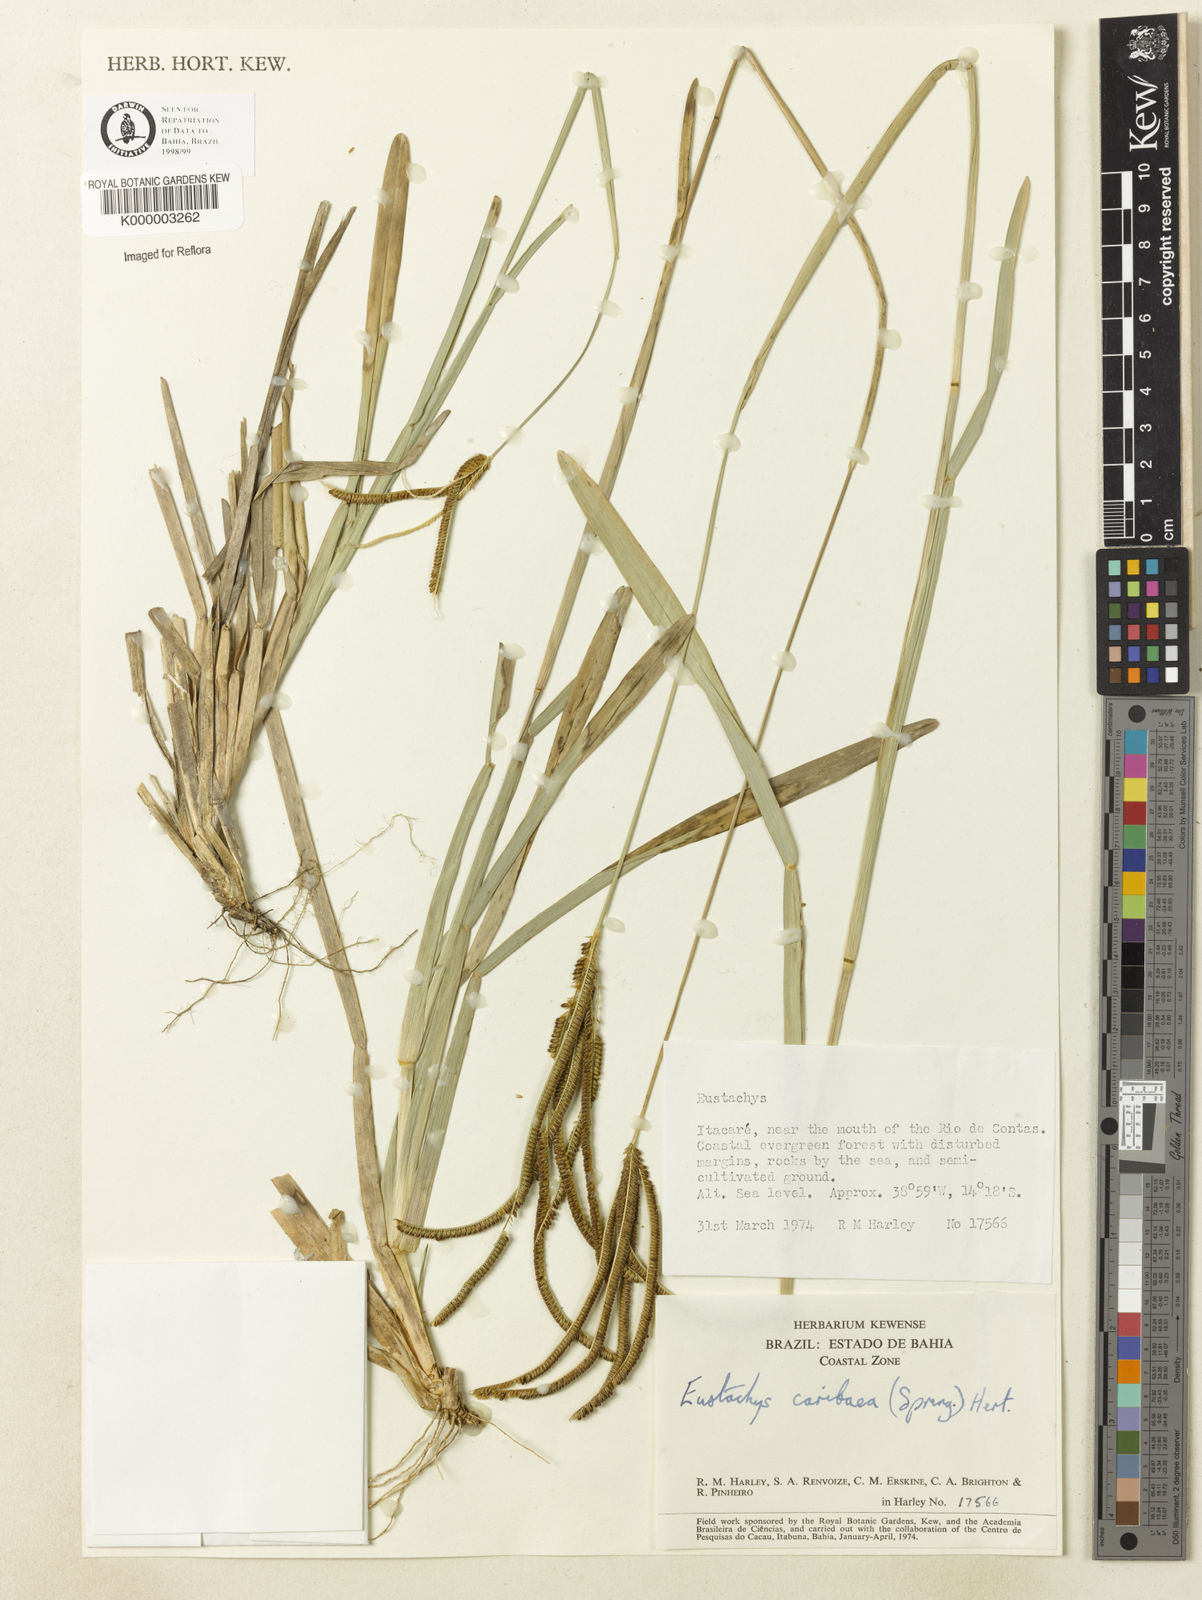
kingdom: Plantae
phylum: Tracheophyta
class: Liliopsida
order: Poales
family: Poaceae
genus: Eustachys
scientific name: Eustachys caribaea
